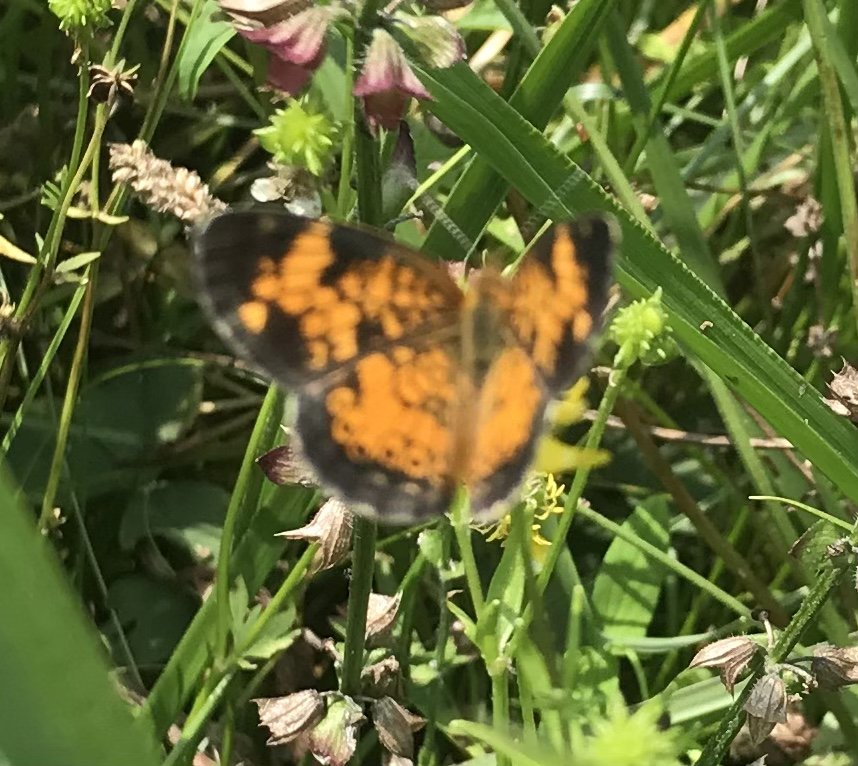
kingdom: Animalia
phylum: Arthropoda
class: Insecta
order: Lepidoptera
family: Nymphalidae
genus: Phyciodes
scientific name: Phyciodes tharos
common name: Pearl Crescent
